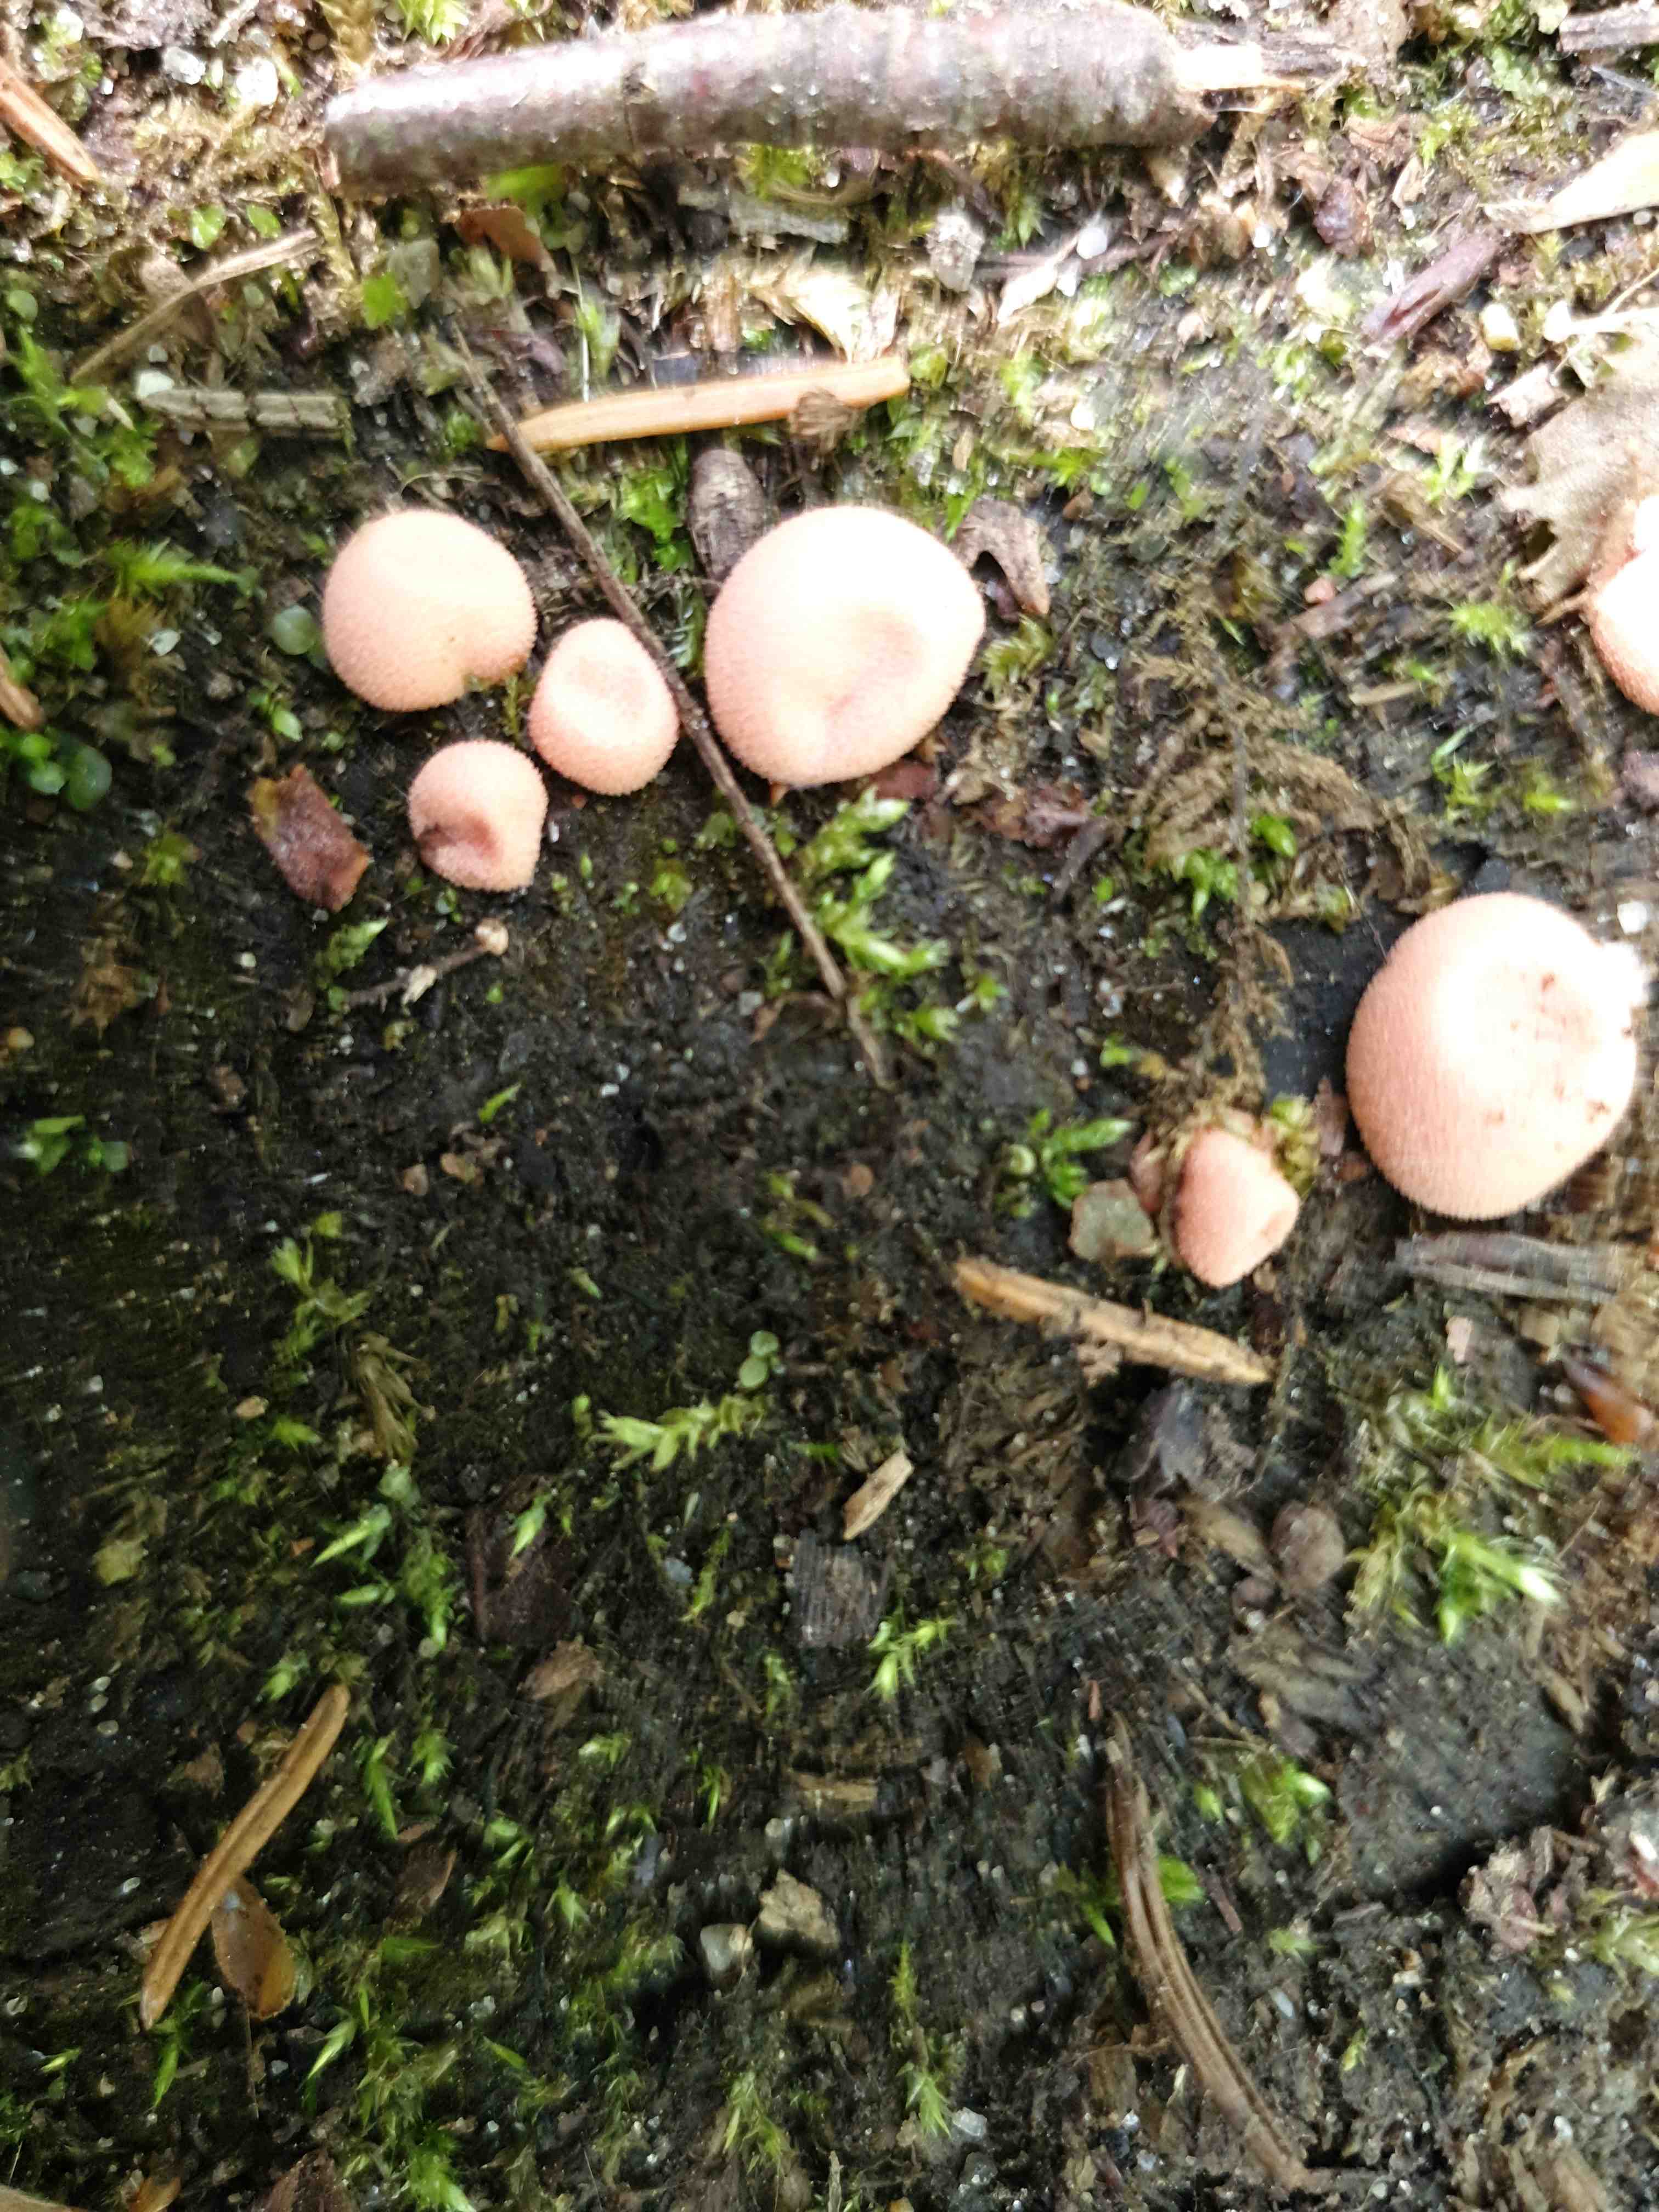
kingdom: Protozoa
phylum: Mycetozoa
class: Myxomycetes
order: Cribrariales
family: Tubiferaceae
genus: Lycogala
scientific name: Lycogala epidendrum
